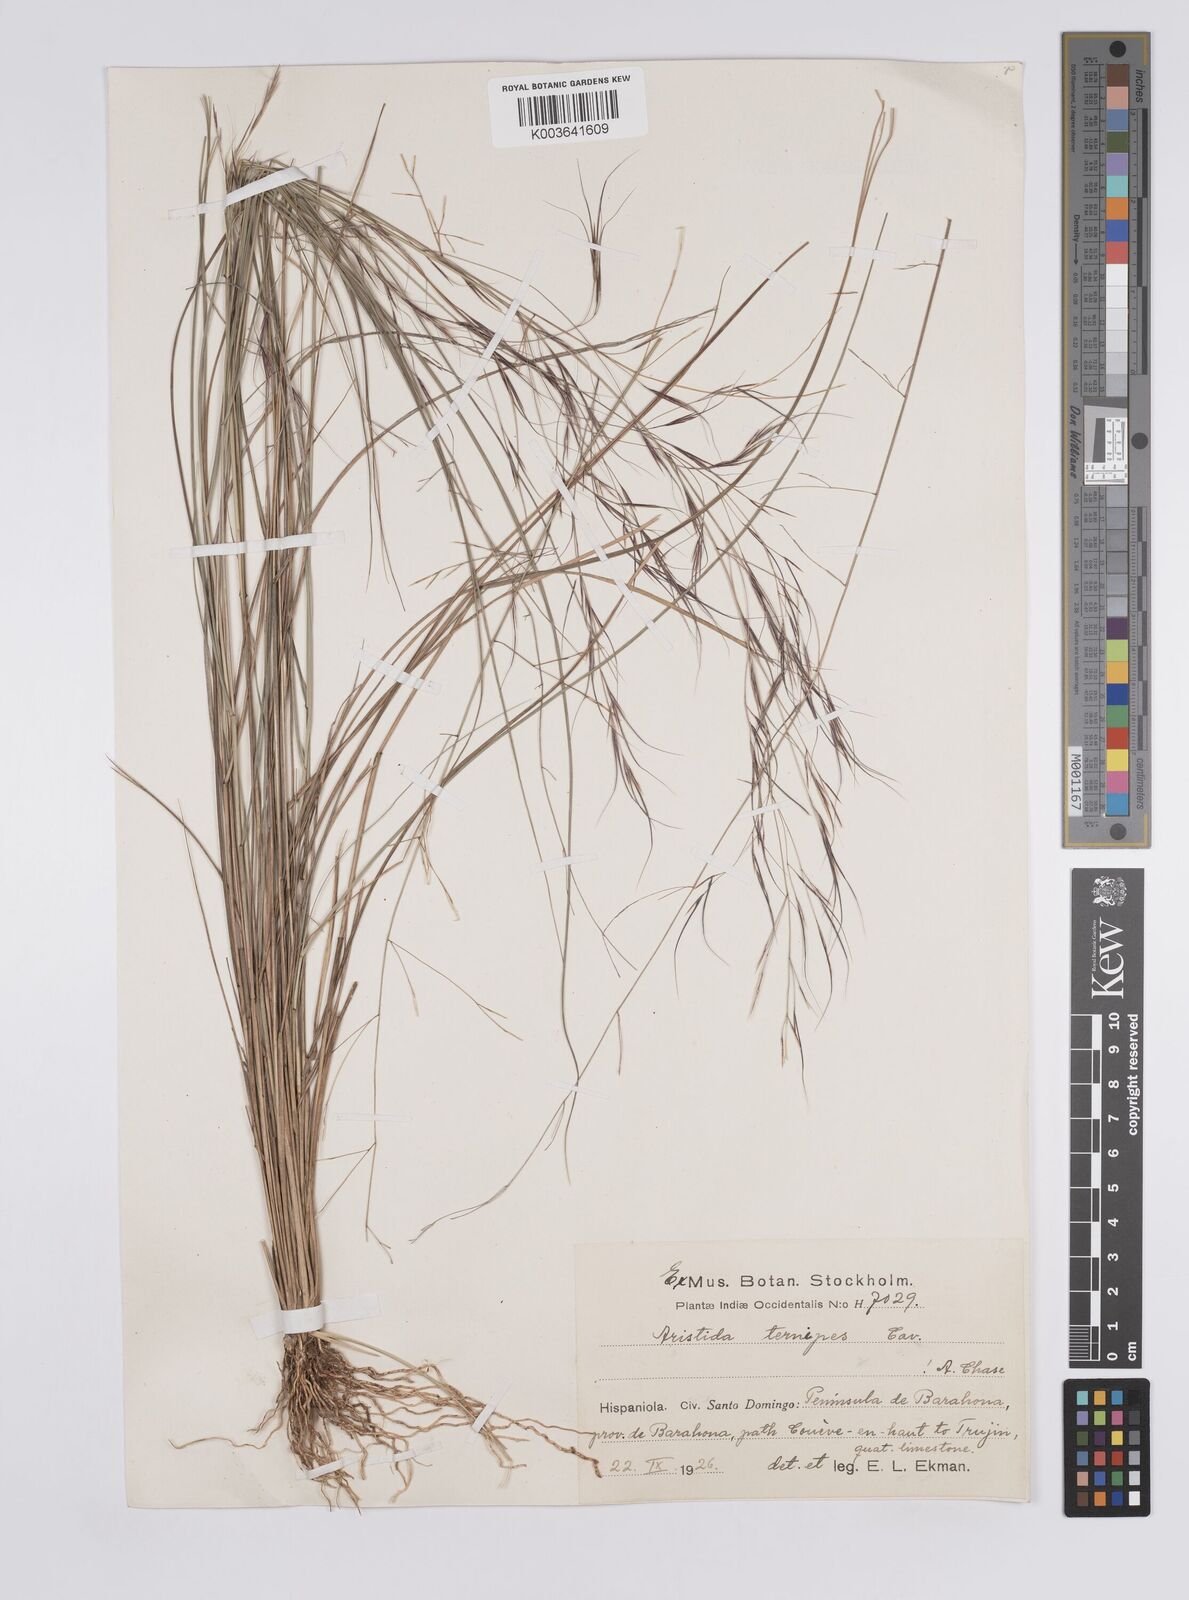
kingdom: Plantae
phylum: Tracheophyta
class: Liliopsida
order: Poales
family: Poaceae
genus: Aristida
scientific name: Aristida ternipes
